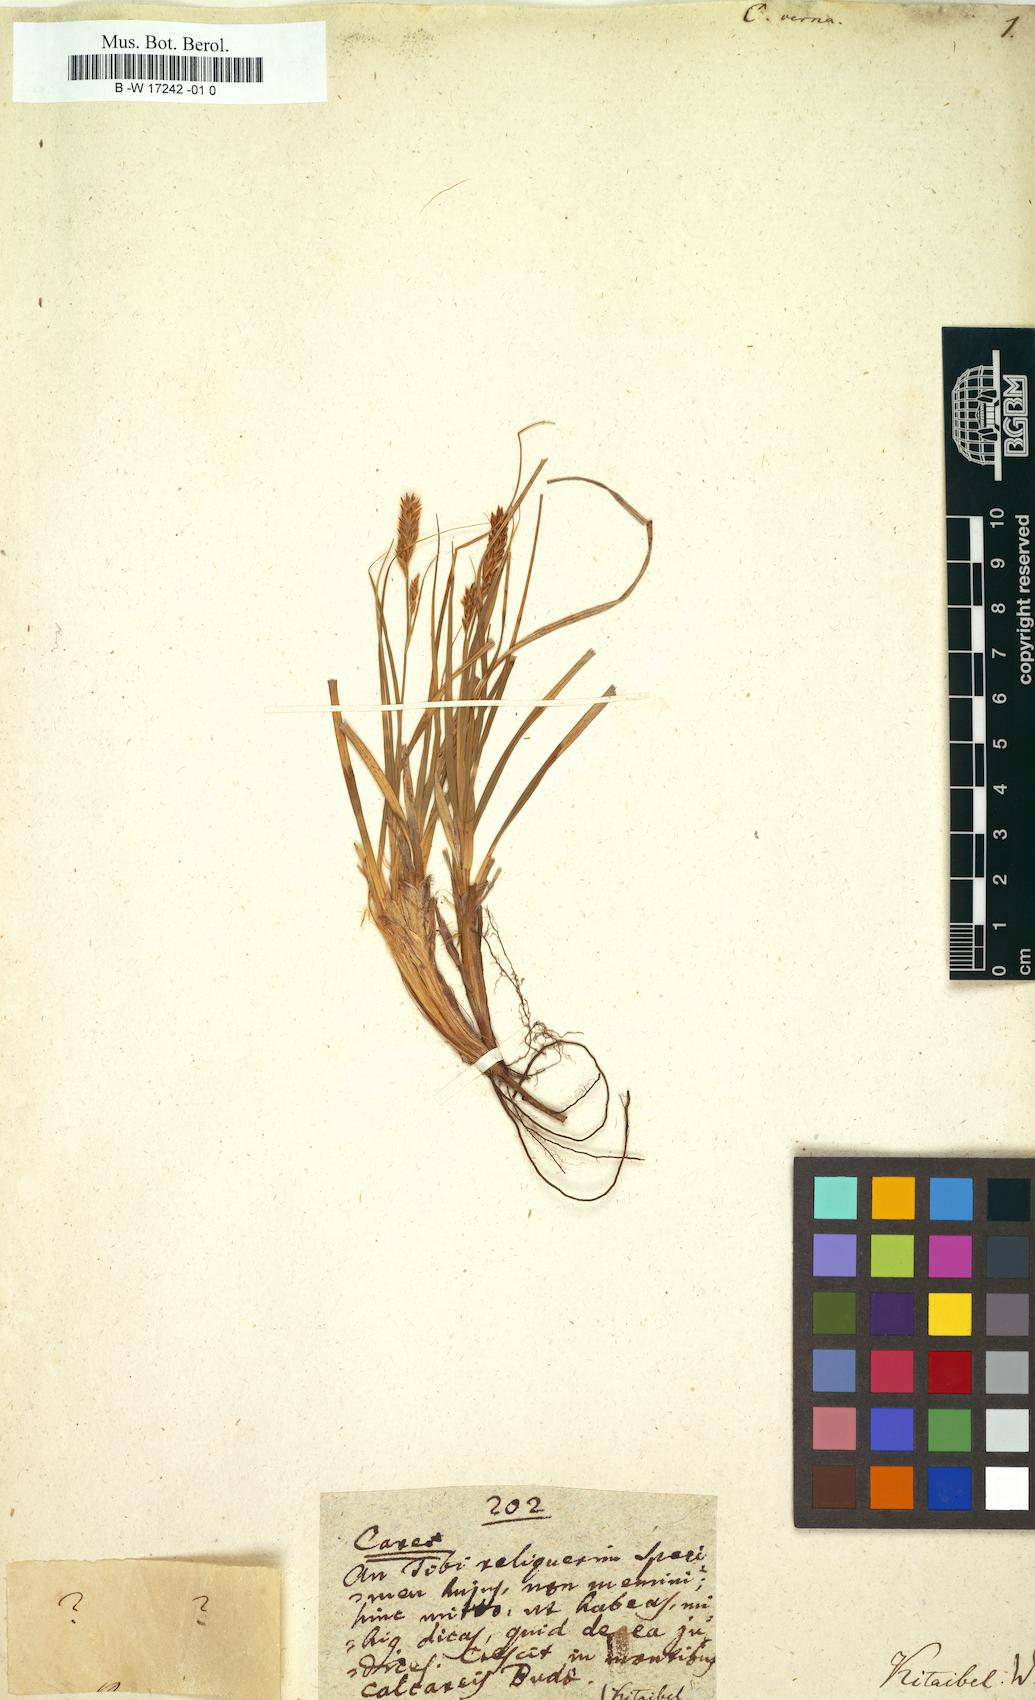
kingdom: Plantae
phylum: Tracheophyta
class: Liliopsida
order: Poales
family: Cyperaceae
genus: Carex
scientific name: Carex
